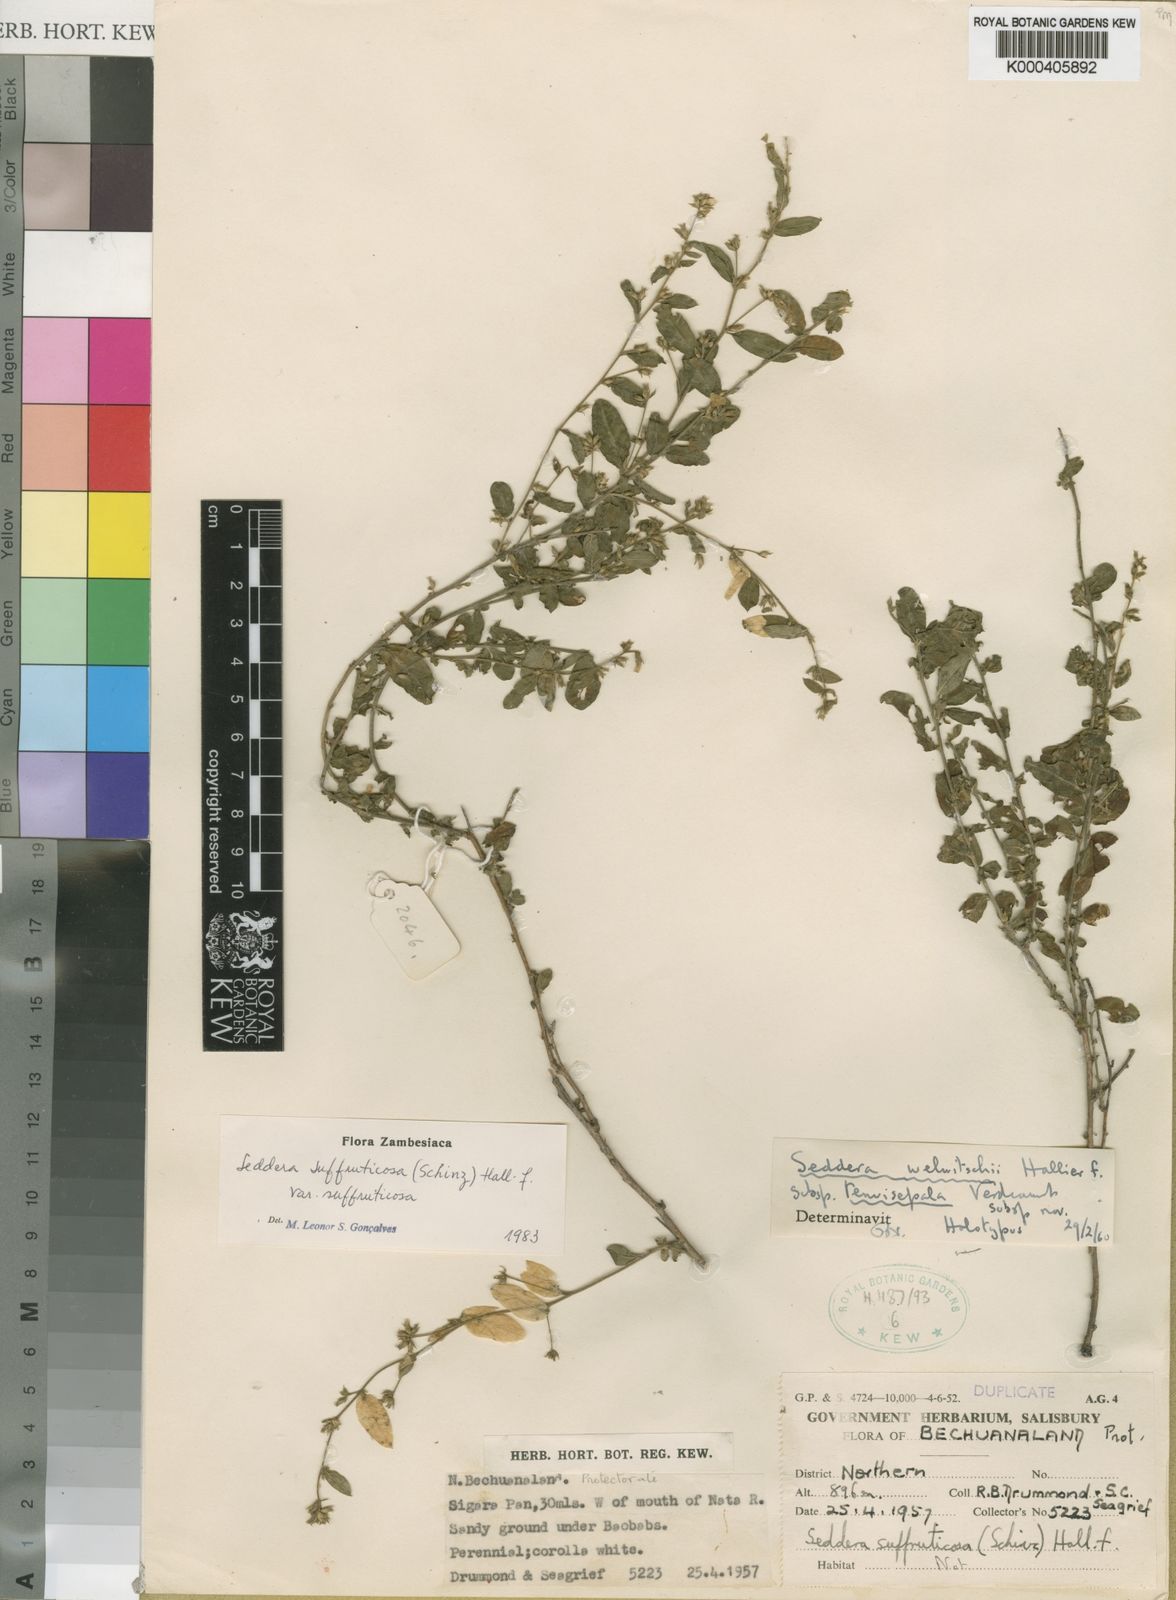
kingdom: Plantae
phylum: Tracheophyta
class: Magnoliopsida
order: Solanales
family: Convolvulaceae
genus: Seddera
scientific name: Seddera suffruticosa
